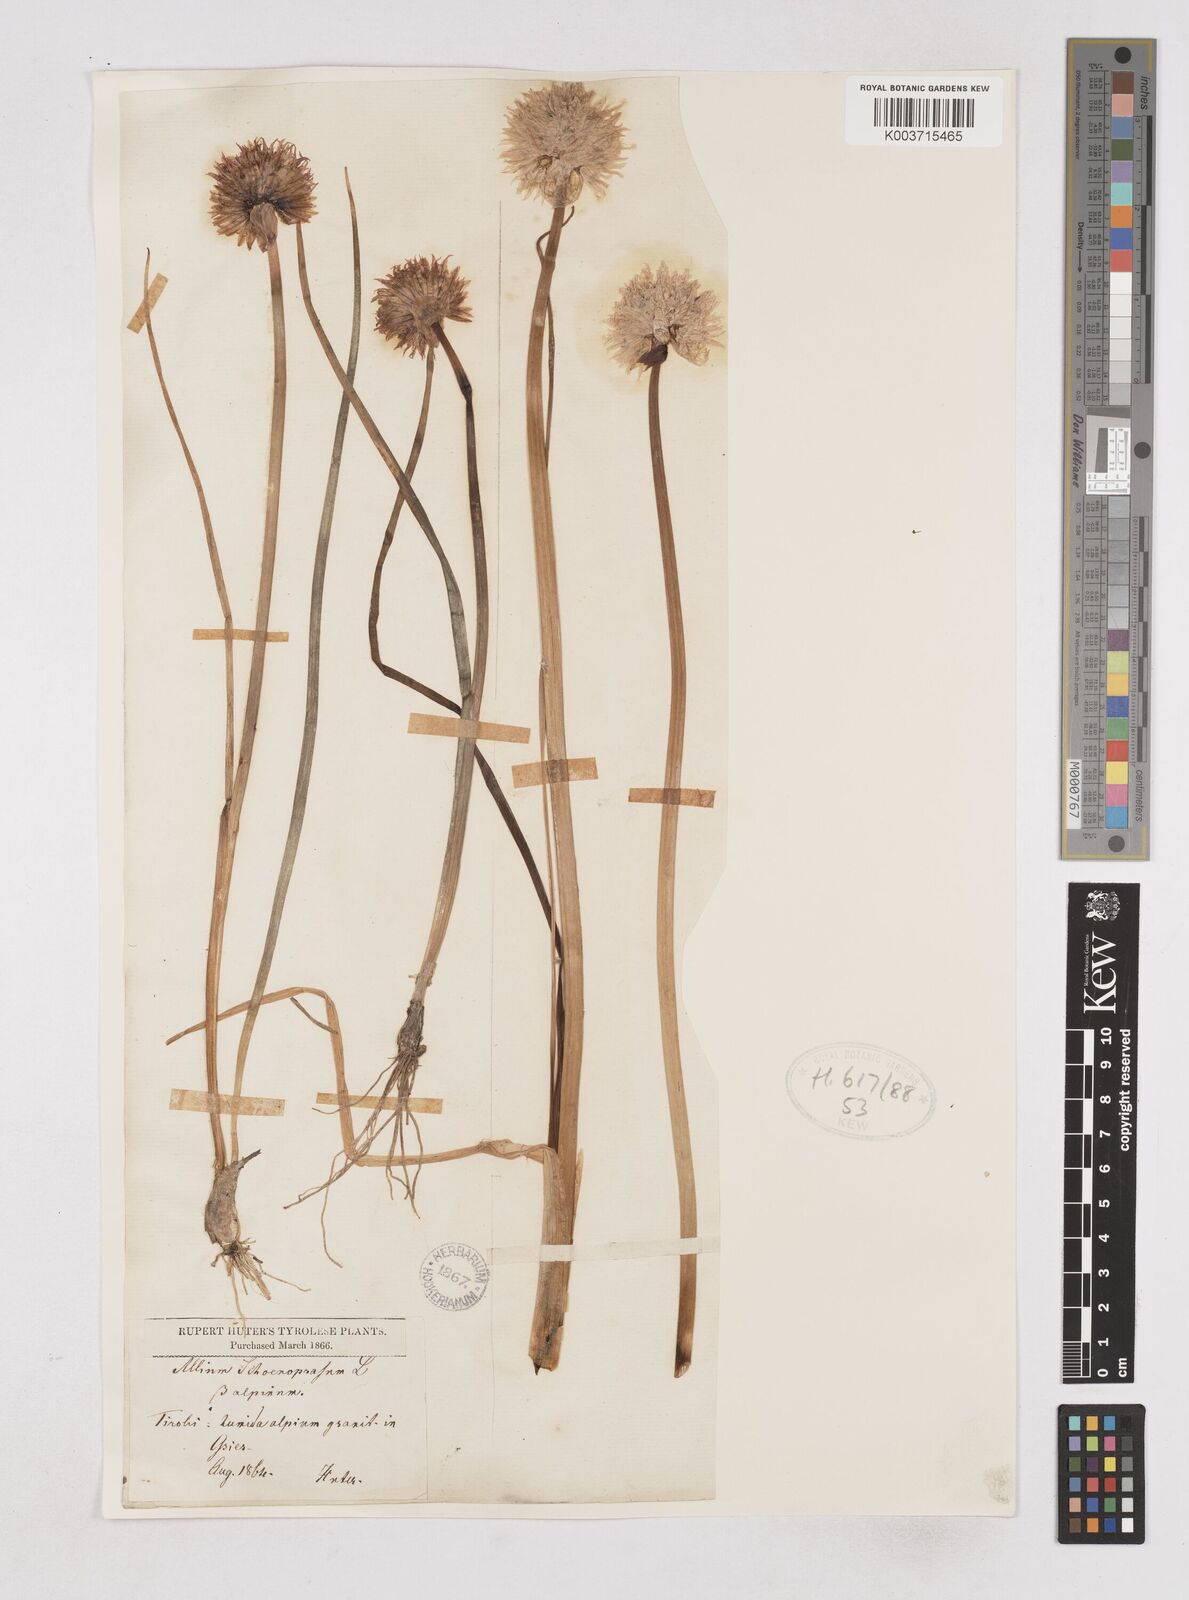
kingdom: Plantae
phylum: Tracheophyta
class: Liliopsida
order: Asparagales
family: Amaryllidaceae
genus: Allium
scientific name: Allium schoenoprasum
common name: Chives
